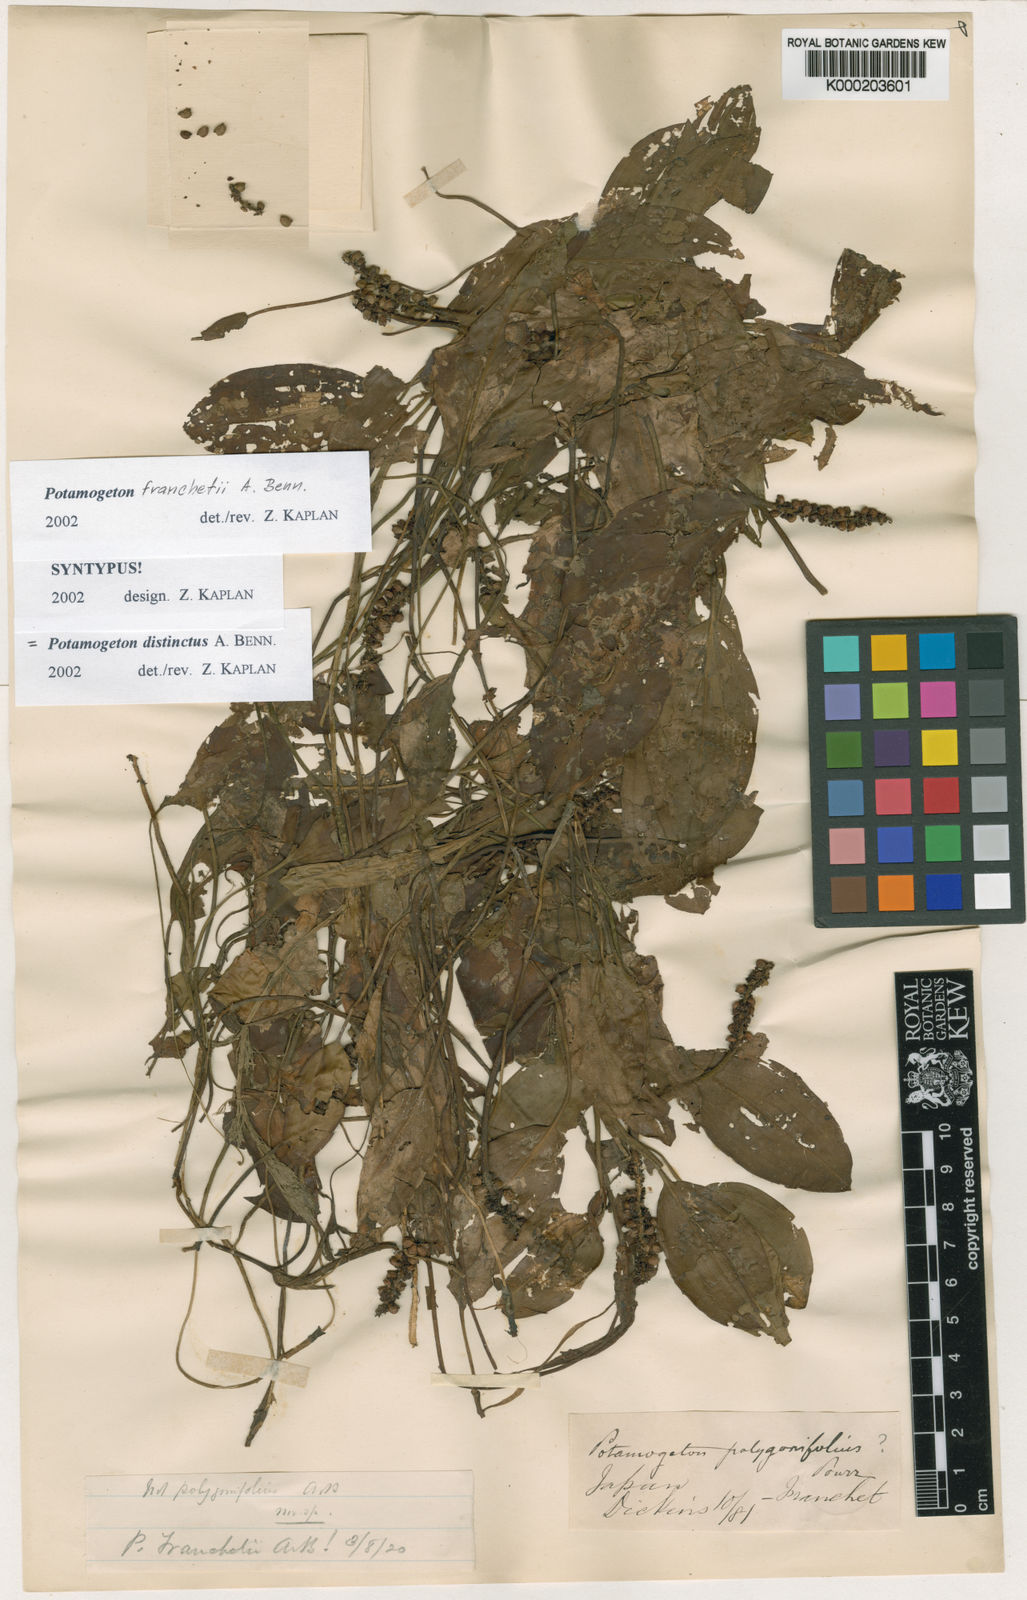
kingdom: Plantae
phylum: Tracheophyta
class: Liliopsida
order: Alismatales
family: Potamogetonaceae
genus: Potamogeton
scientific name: Potamogeton distinctus
